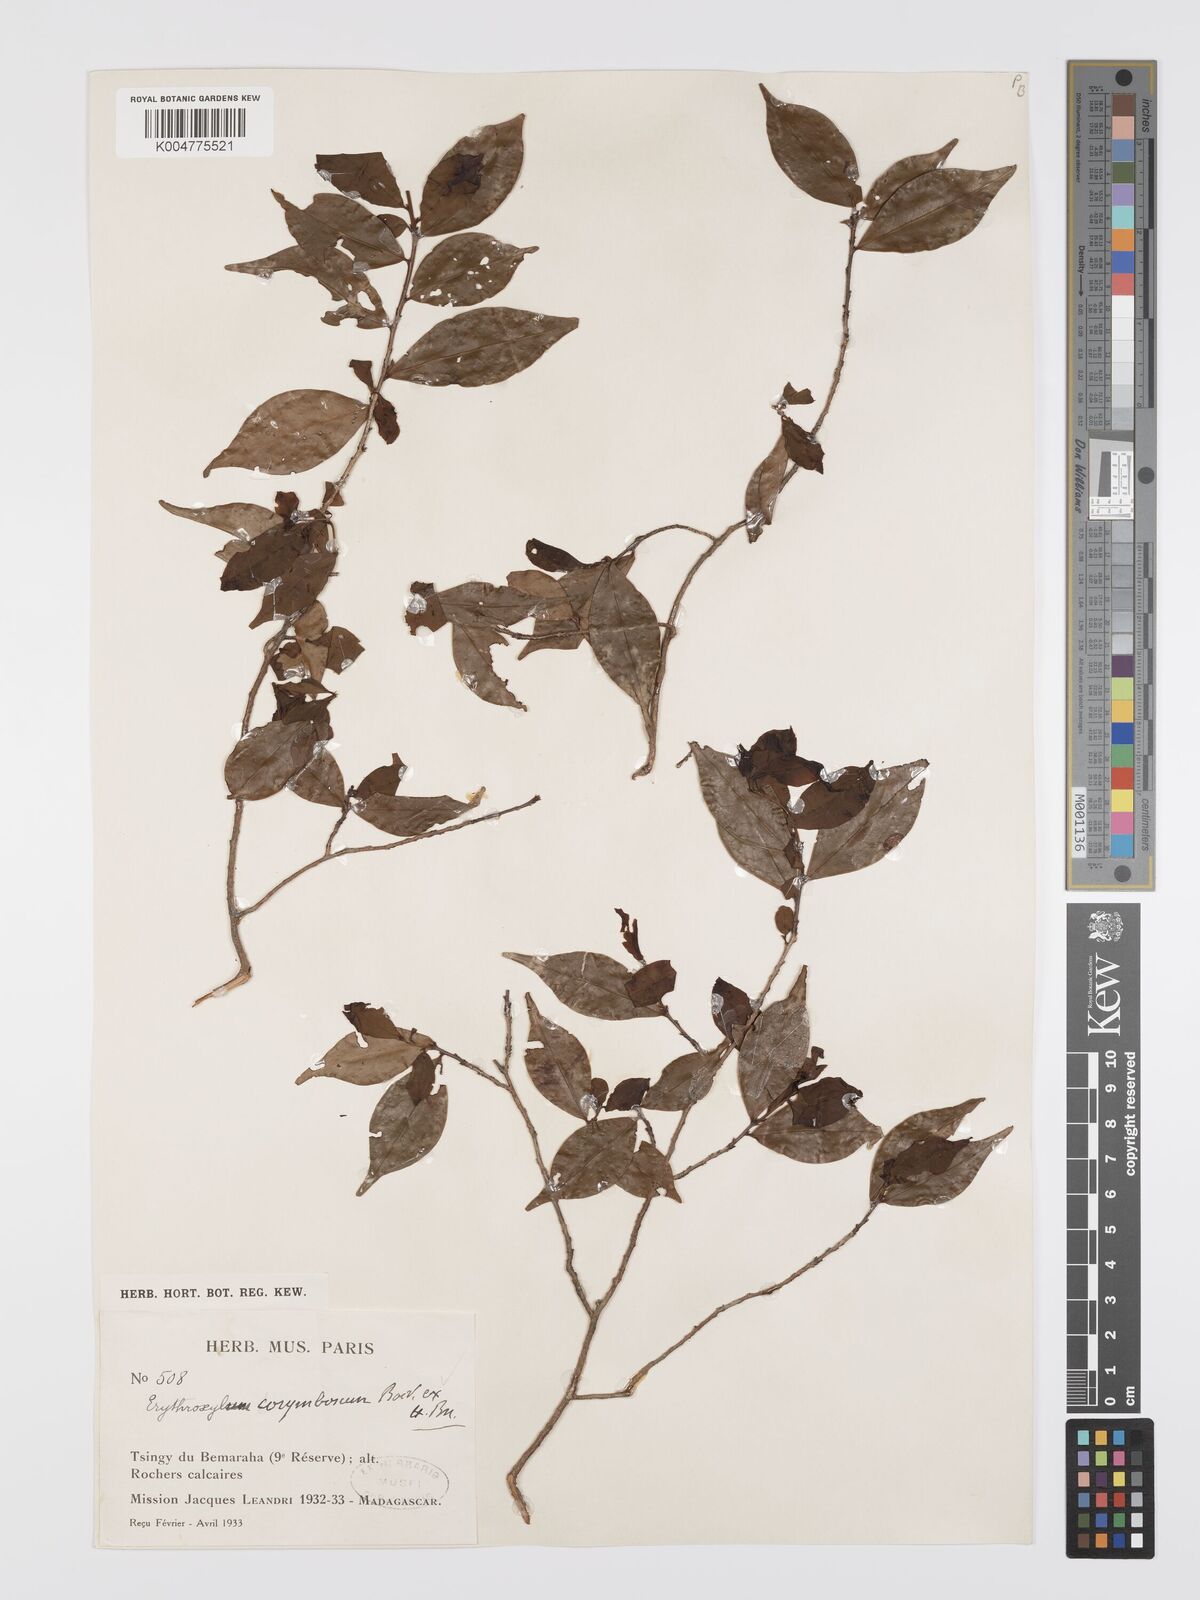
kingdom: Plantae
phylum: Tracheophyta
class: Magnoliopsida
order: Malpighiales
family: Erythroxylaceae
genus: Erythroxylum
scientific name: Erythroxylum corymbosum
